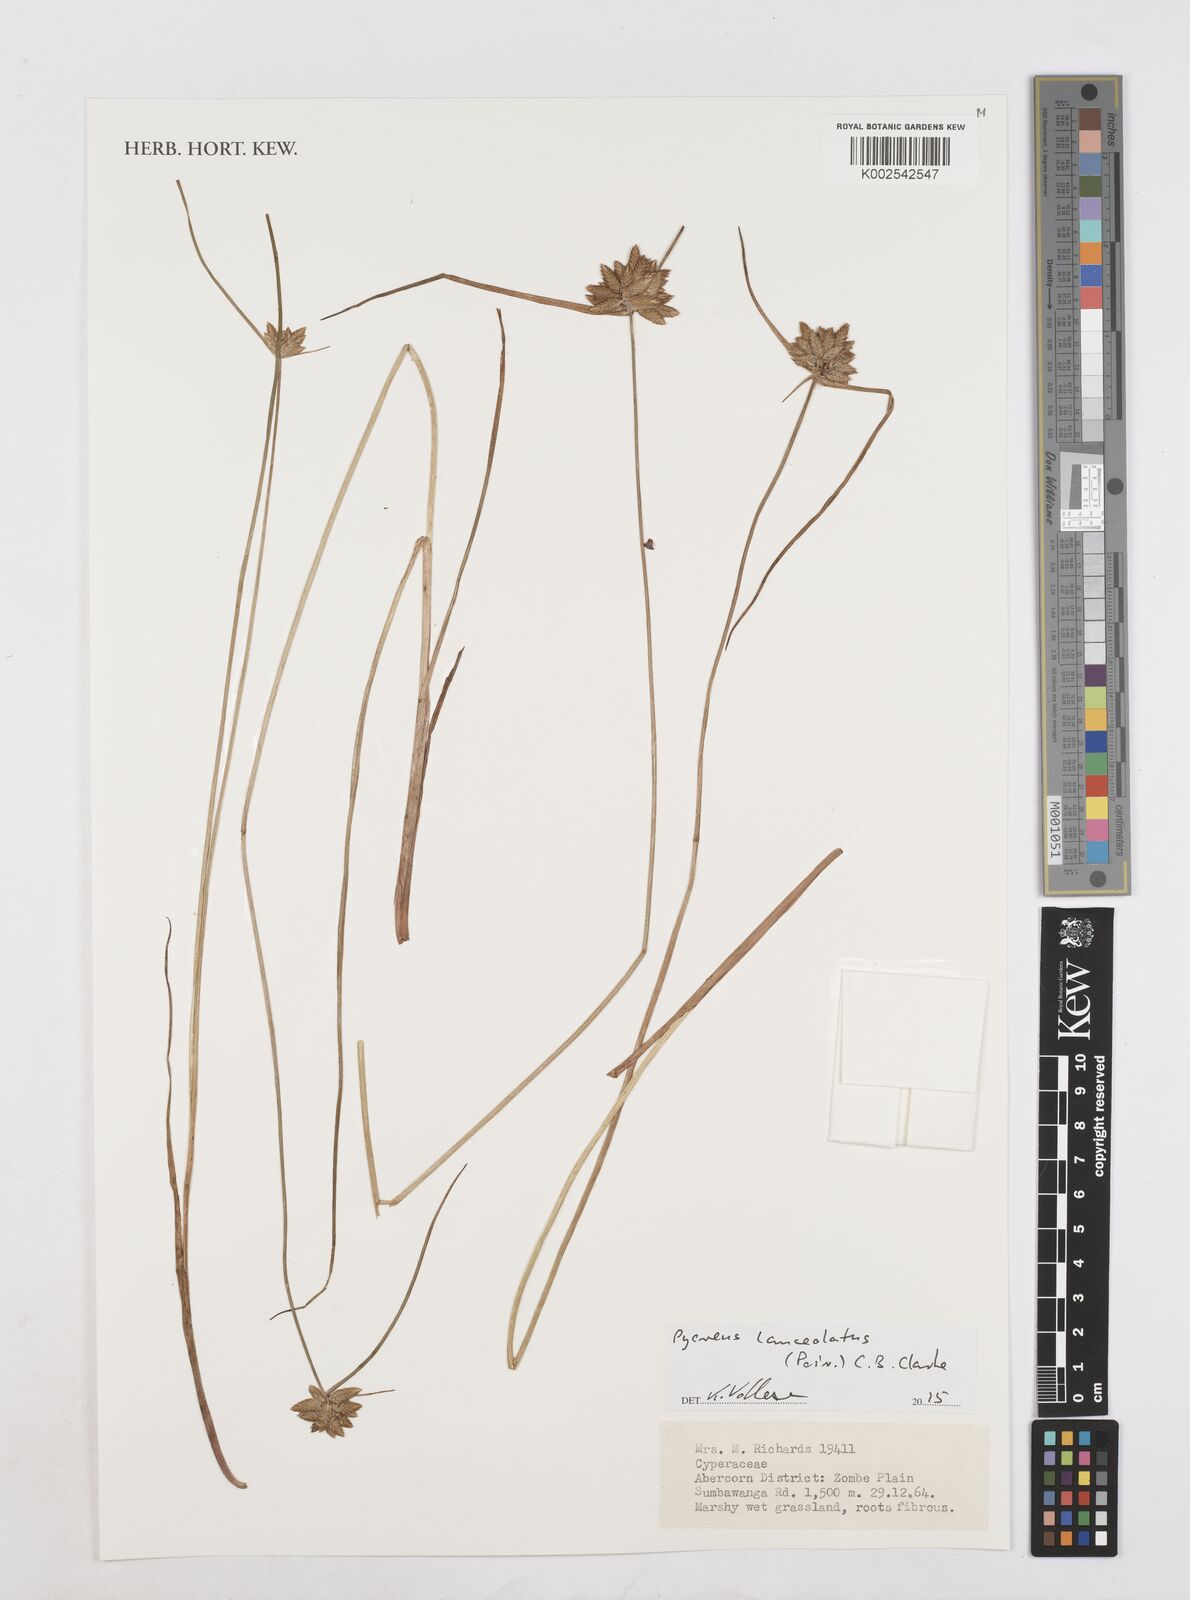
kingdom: Plantae
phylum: Tracheophyta
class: Liliopsida
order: Poales
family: Cyperaceae
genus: Cyperus
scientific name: Cyperus
